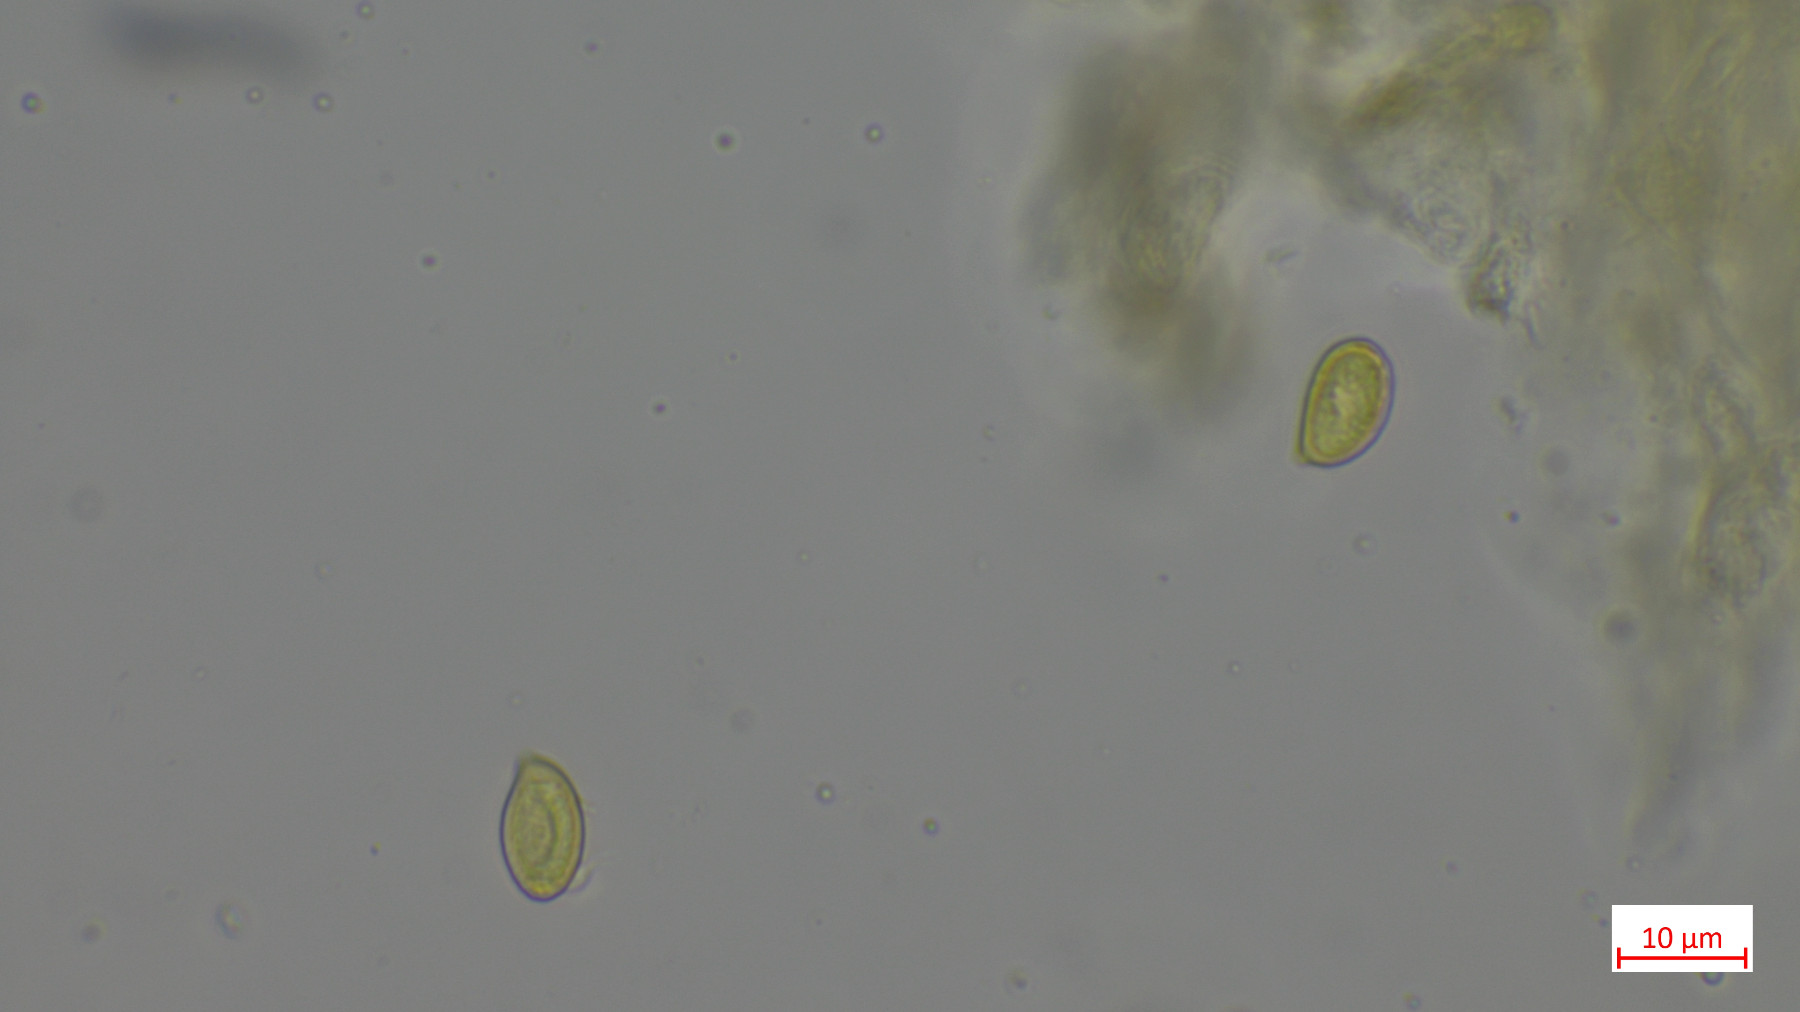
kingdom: Fungi
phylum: Basidiomycota
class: Agaricomycetes
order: Agaricales
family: Cortinariaceae
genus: Cortinarius
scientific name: Cortinarius
